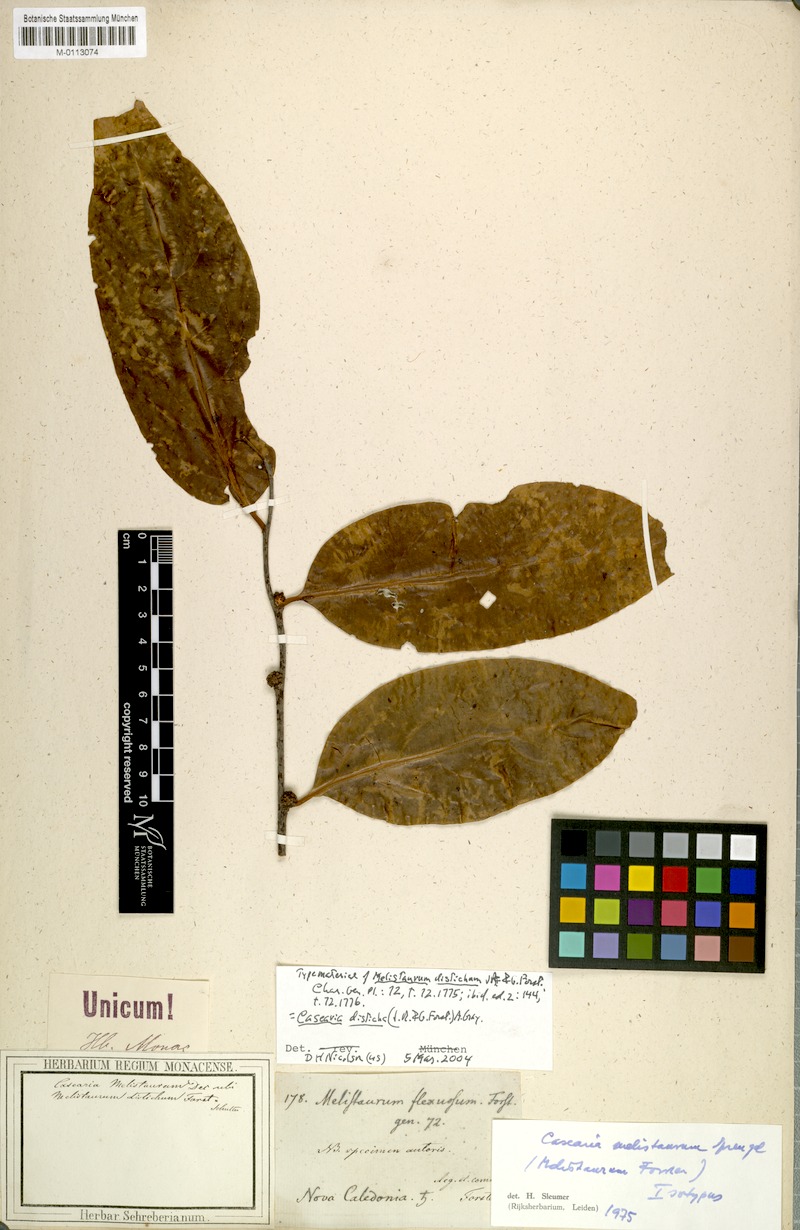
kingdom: Plantae
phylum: Tracheophyta
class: Magnoliopsida
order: Malpighiales
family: Salicaceae
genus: Casearia
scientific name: Casearia
